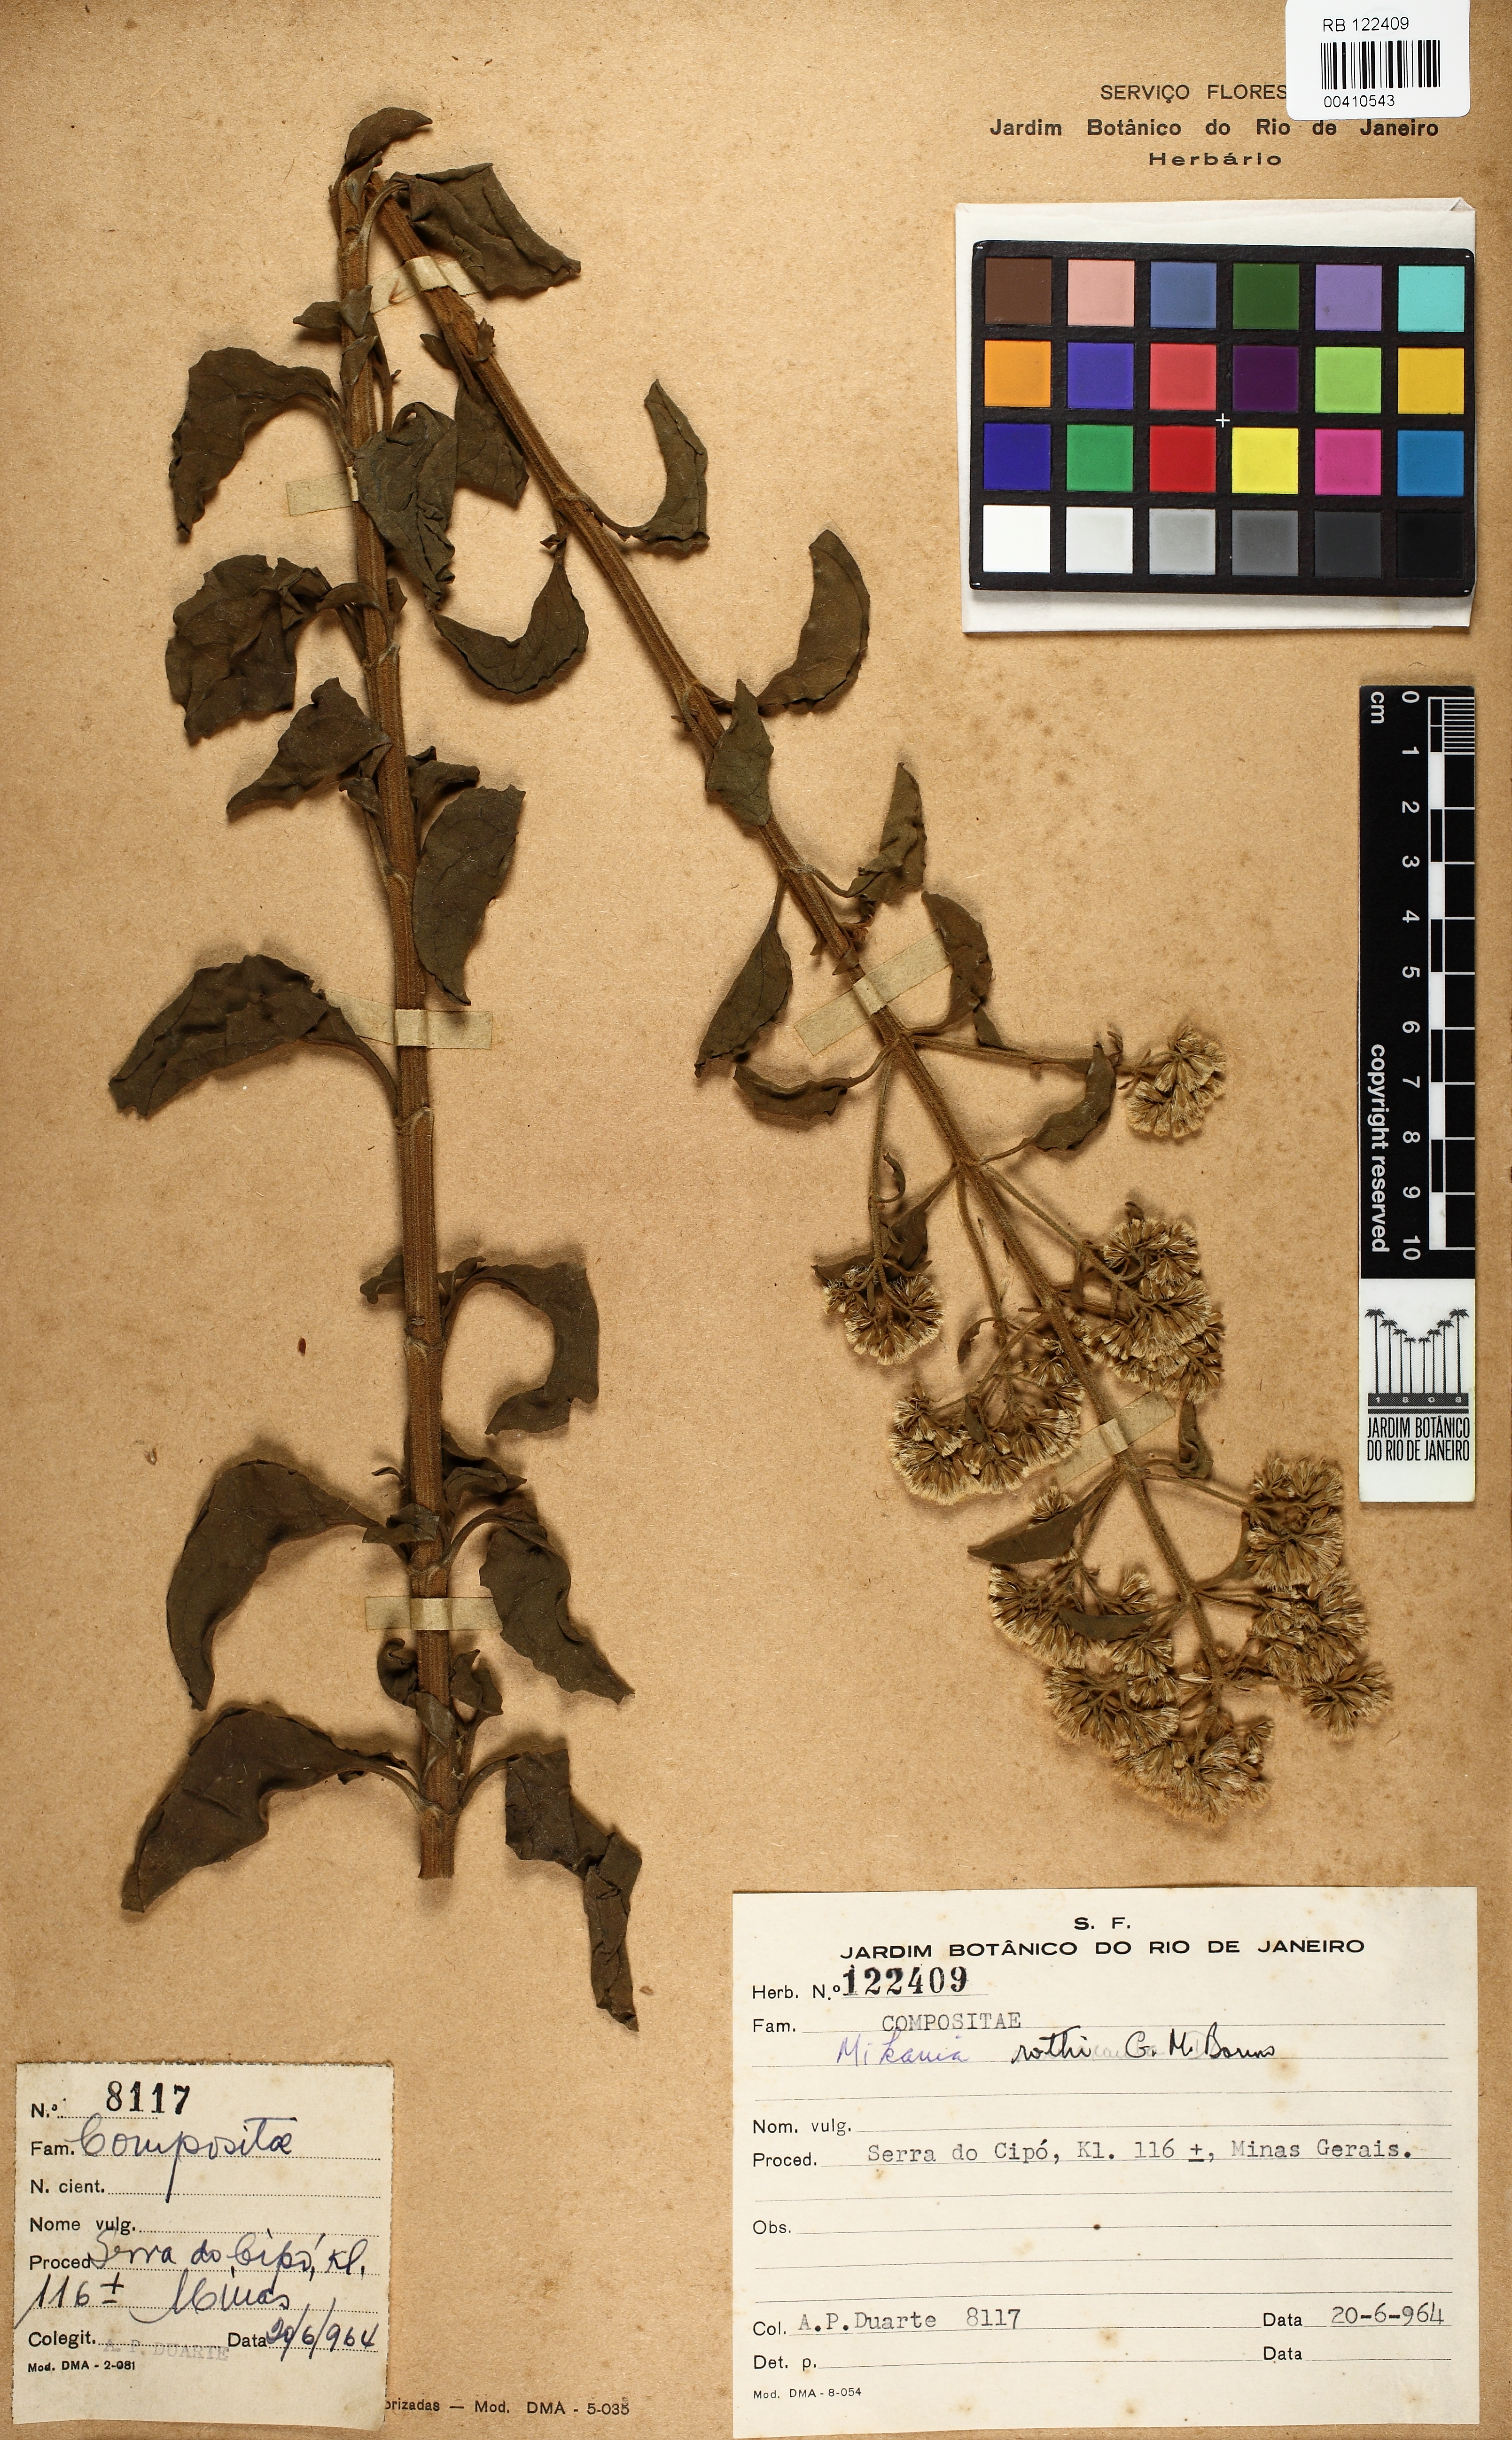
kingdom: Plantae
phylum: Tracheophyta
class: Magnoliopsida
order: Asterales
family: Asteraceae
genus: Mikania
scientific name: Mikania rothii
